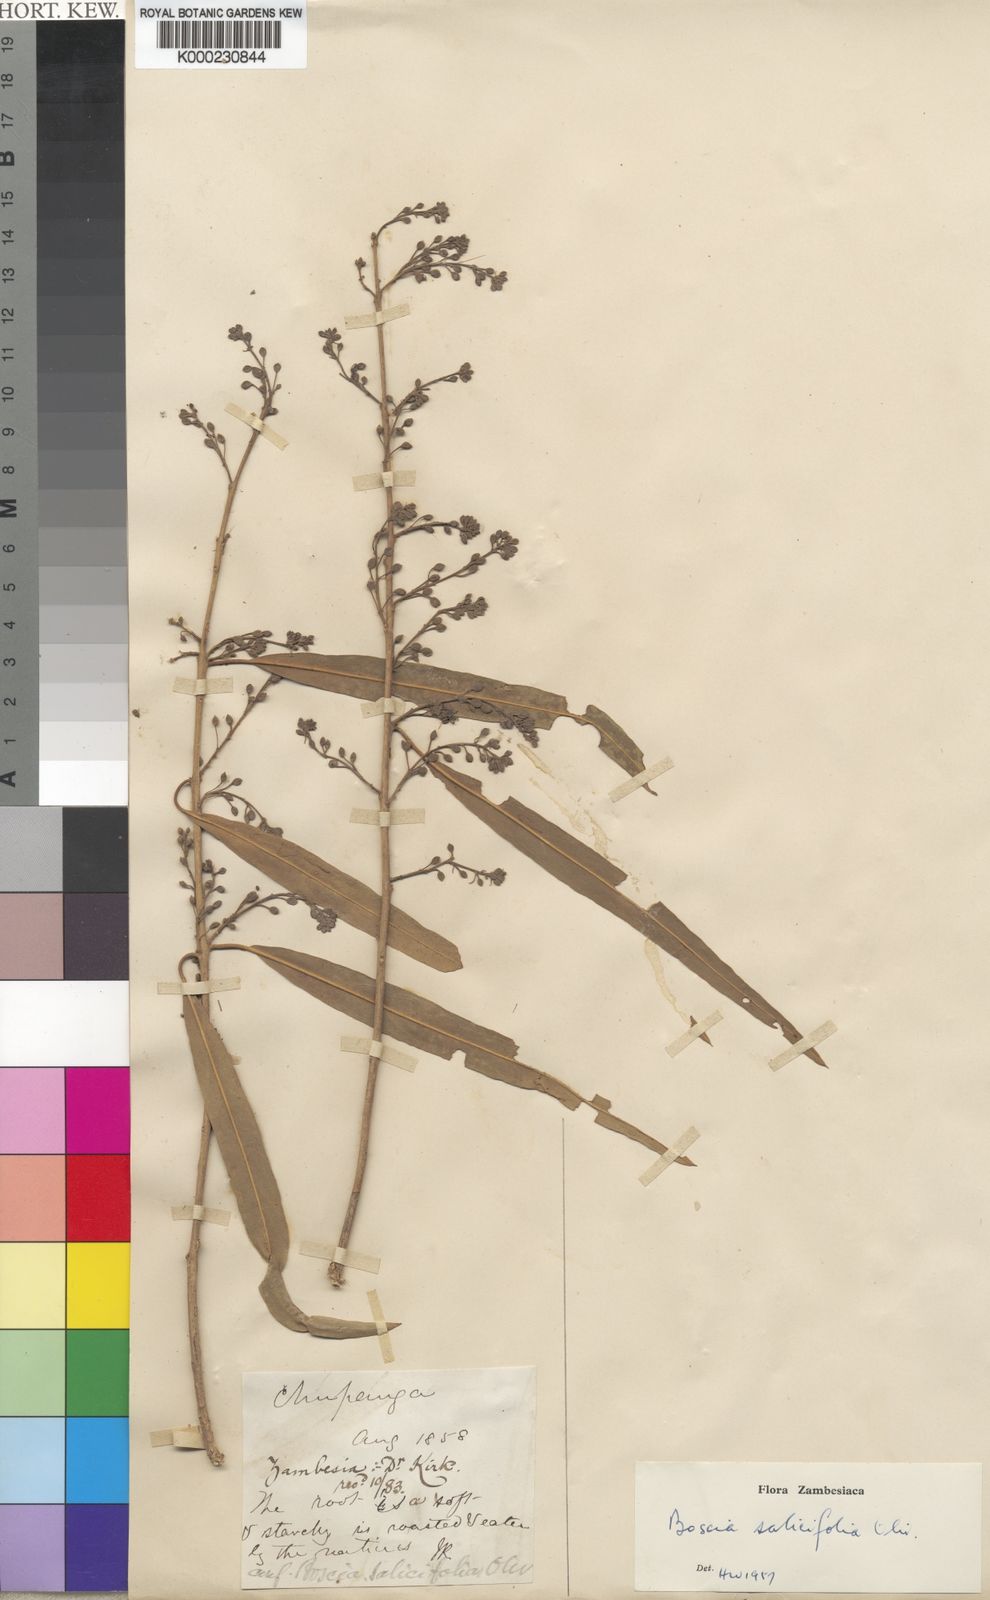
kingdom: Plantae
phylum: Tracheophyta
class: Magnoliopsida
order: Brassicales
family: Capparaceae
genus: Boscia
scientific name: Boscia salicifolia
